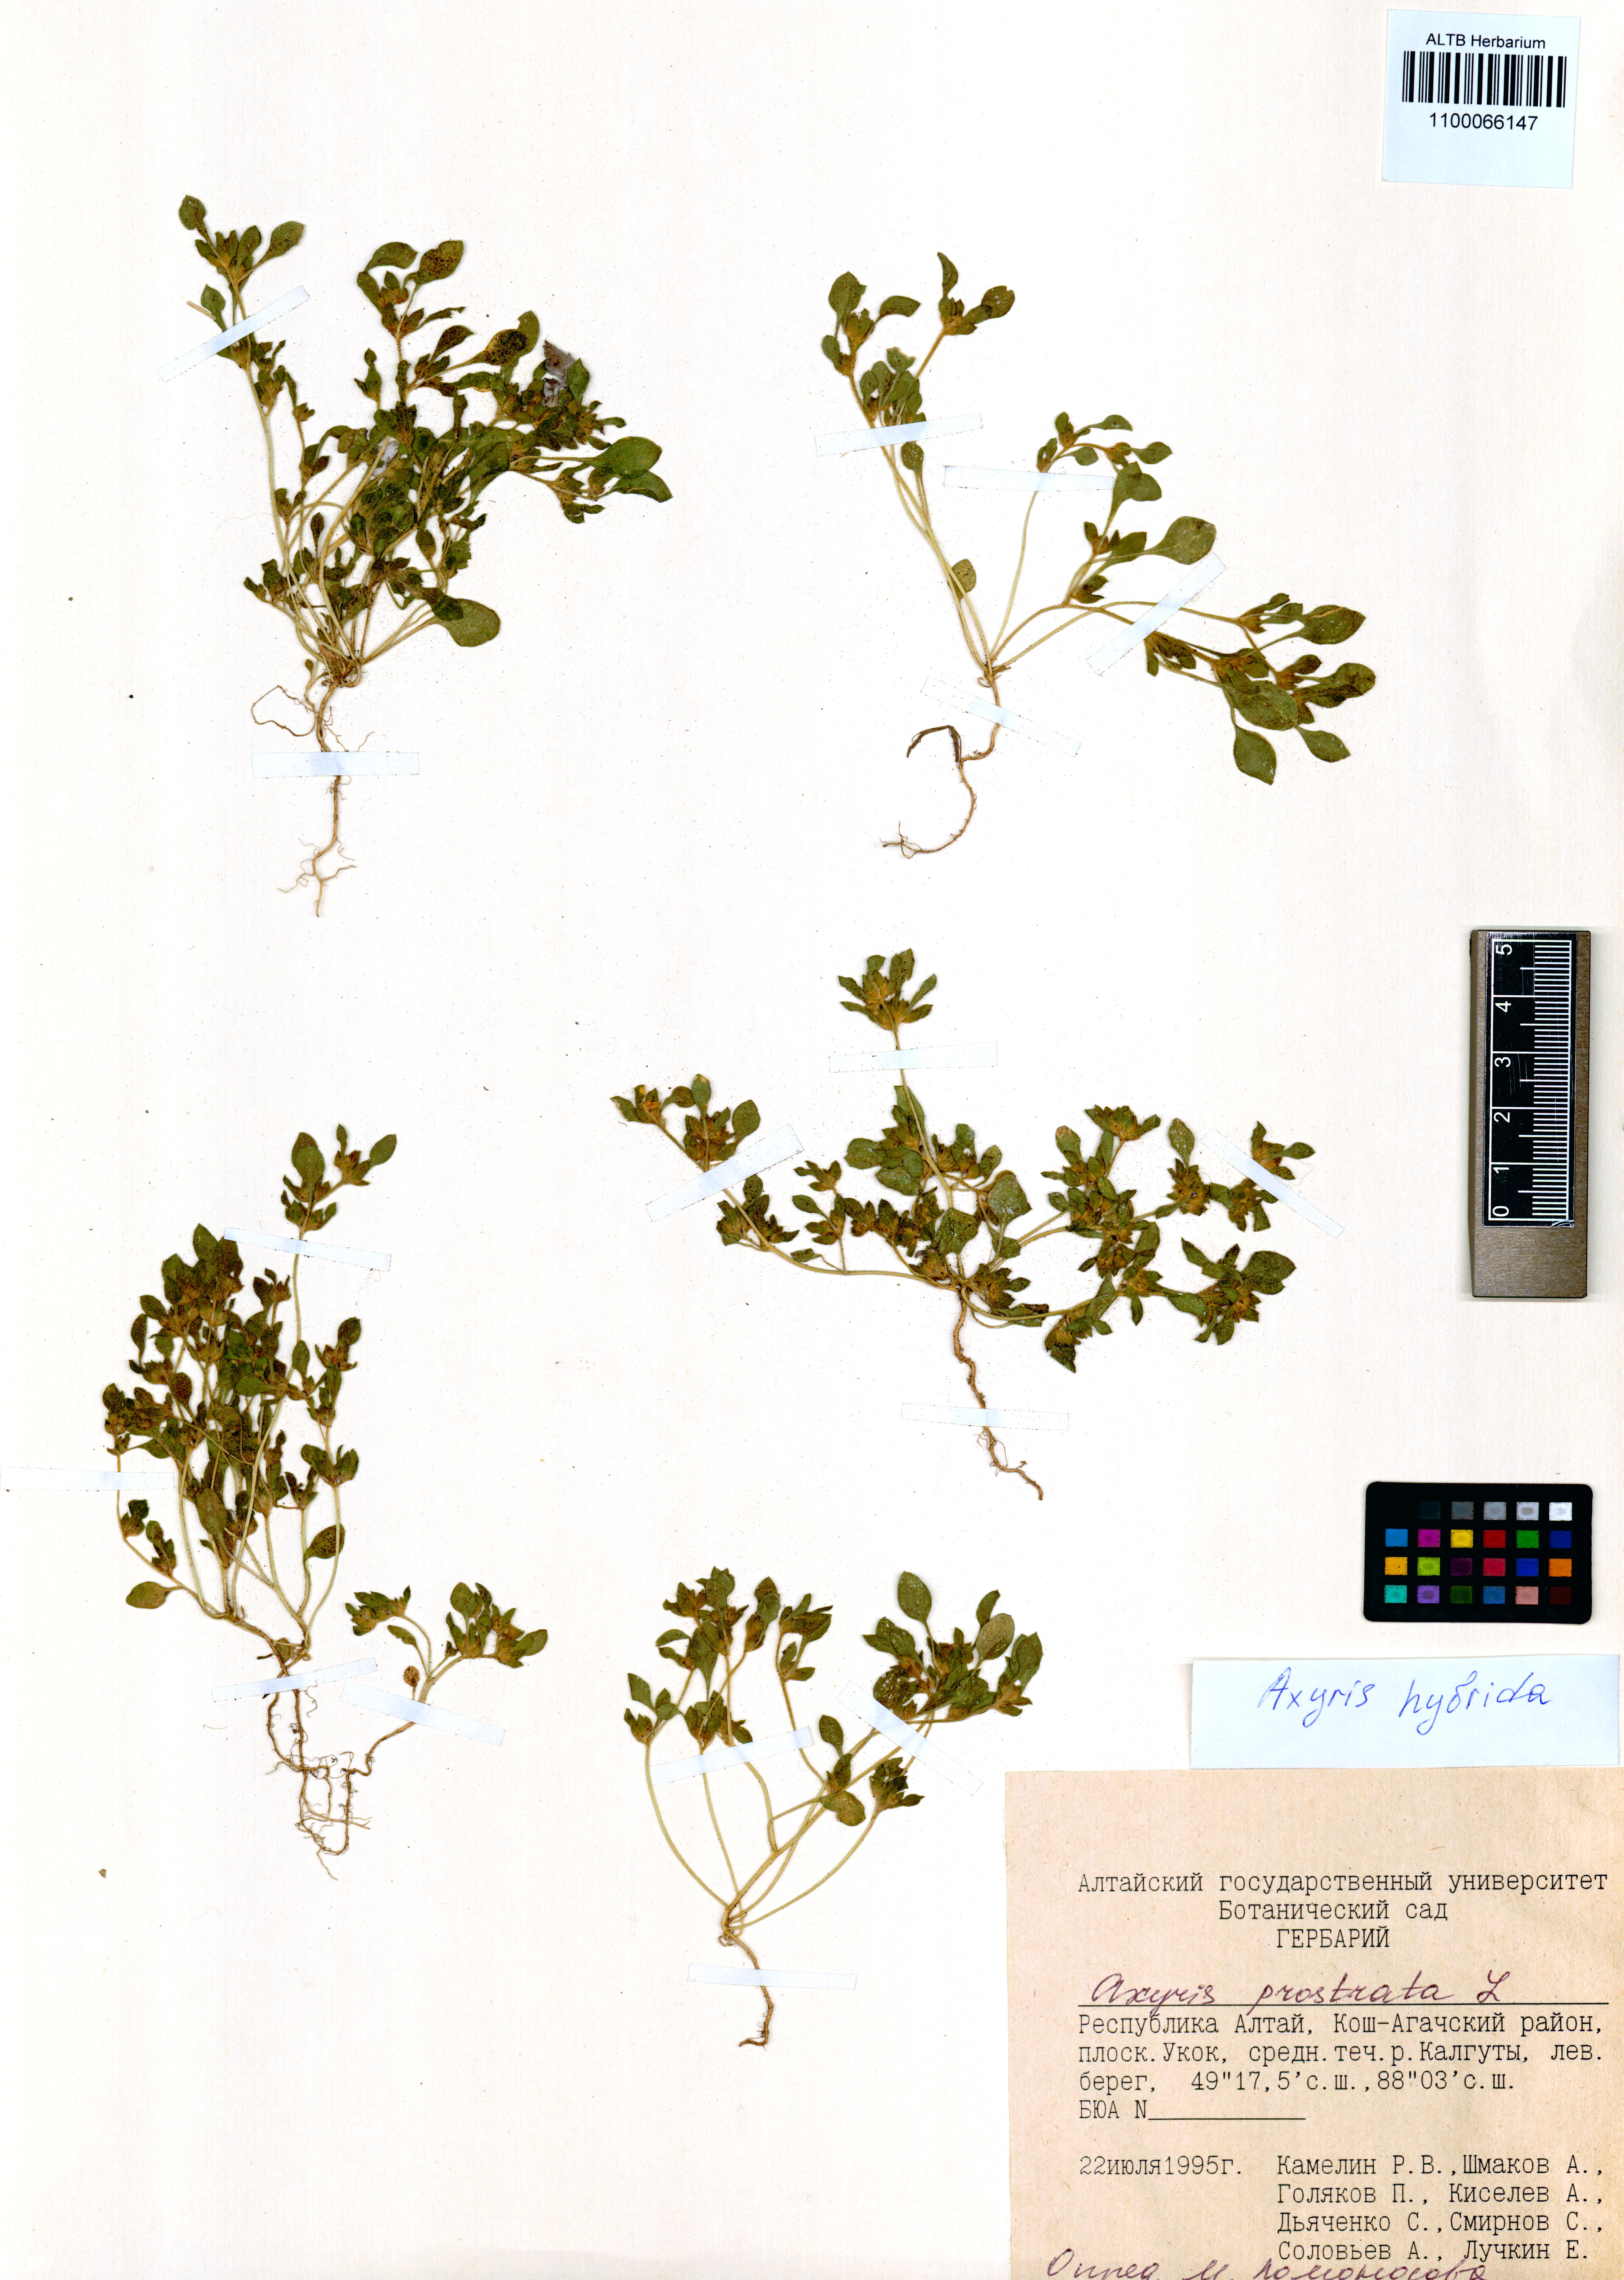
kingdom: Plantae
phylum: Tracheophyta
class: Magnoliopsida
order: Caryophyllales
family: Amaranthaceae
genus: Axyris
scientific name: Axyris hybrida
